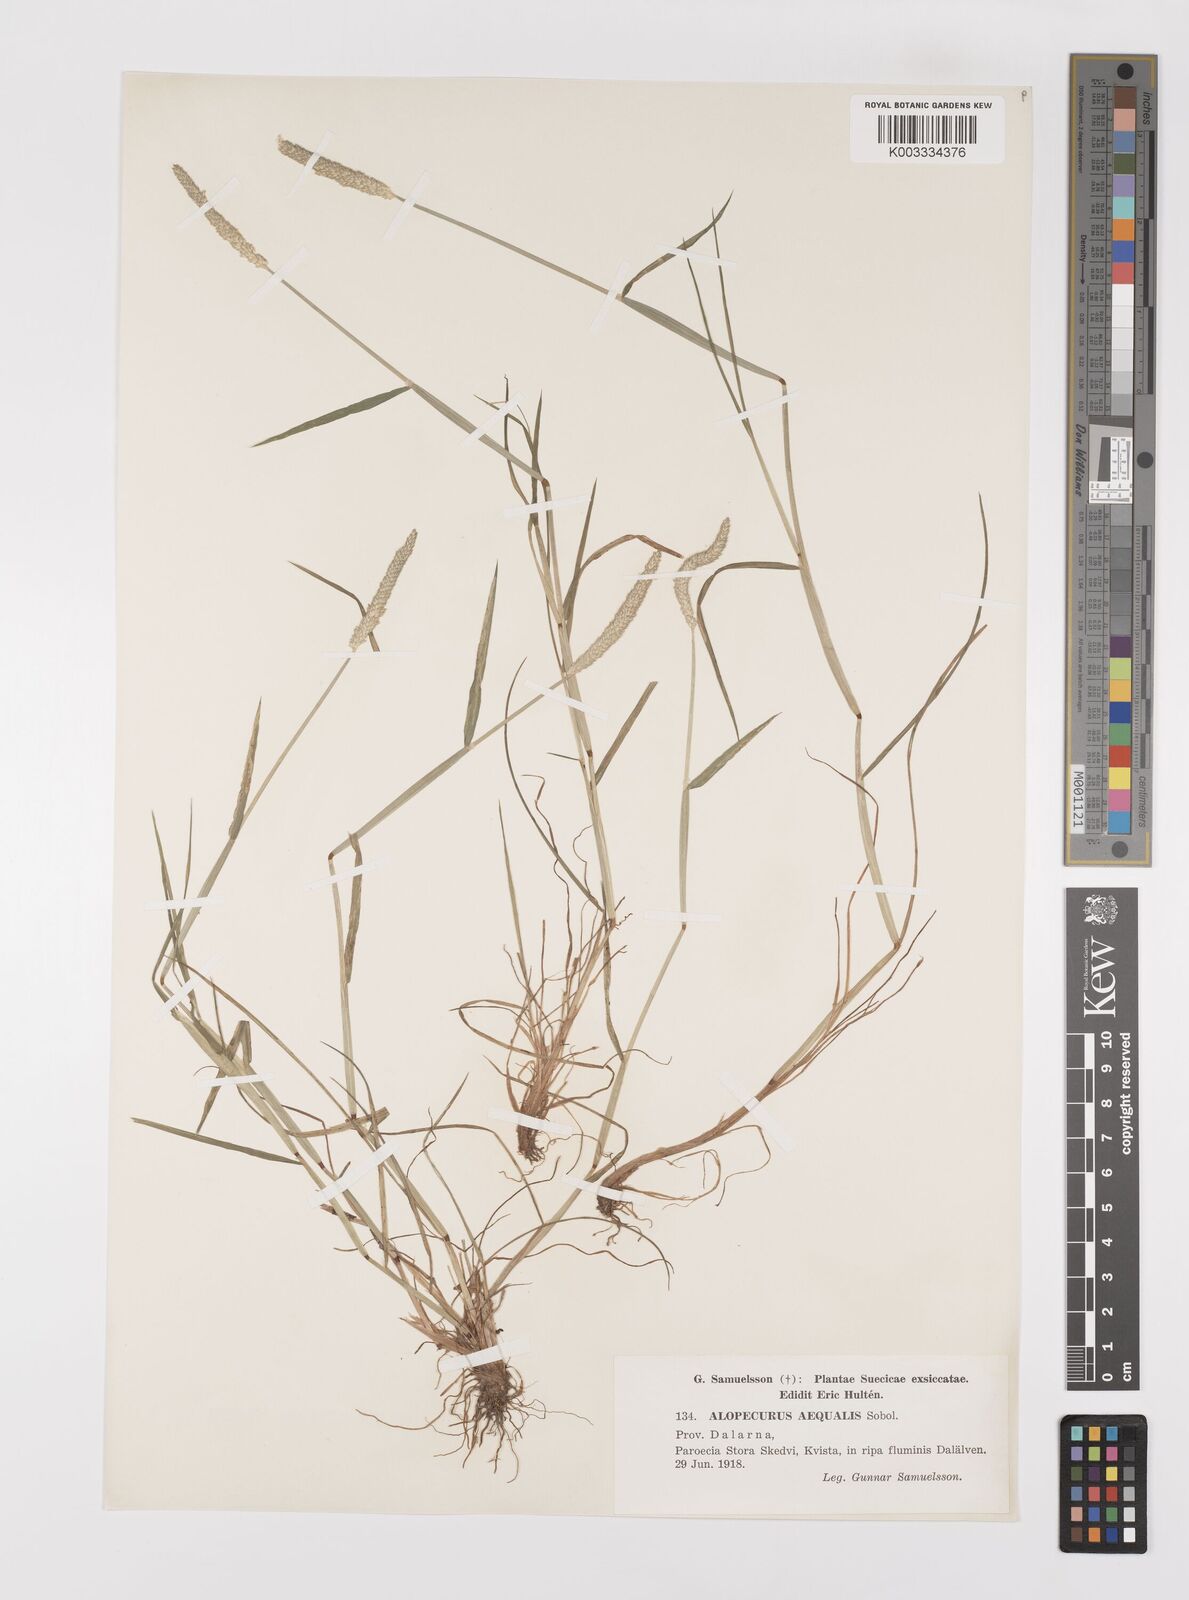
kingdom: Plantae
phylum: Tracheophyta
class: Liliopsida
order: Poales
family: Poaceae
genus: Alopecurus
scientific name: Alopecurus aequalis
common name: Orange foxtail
